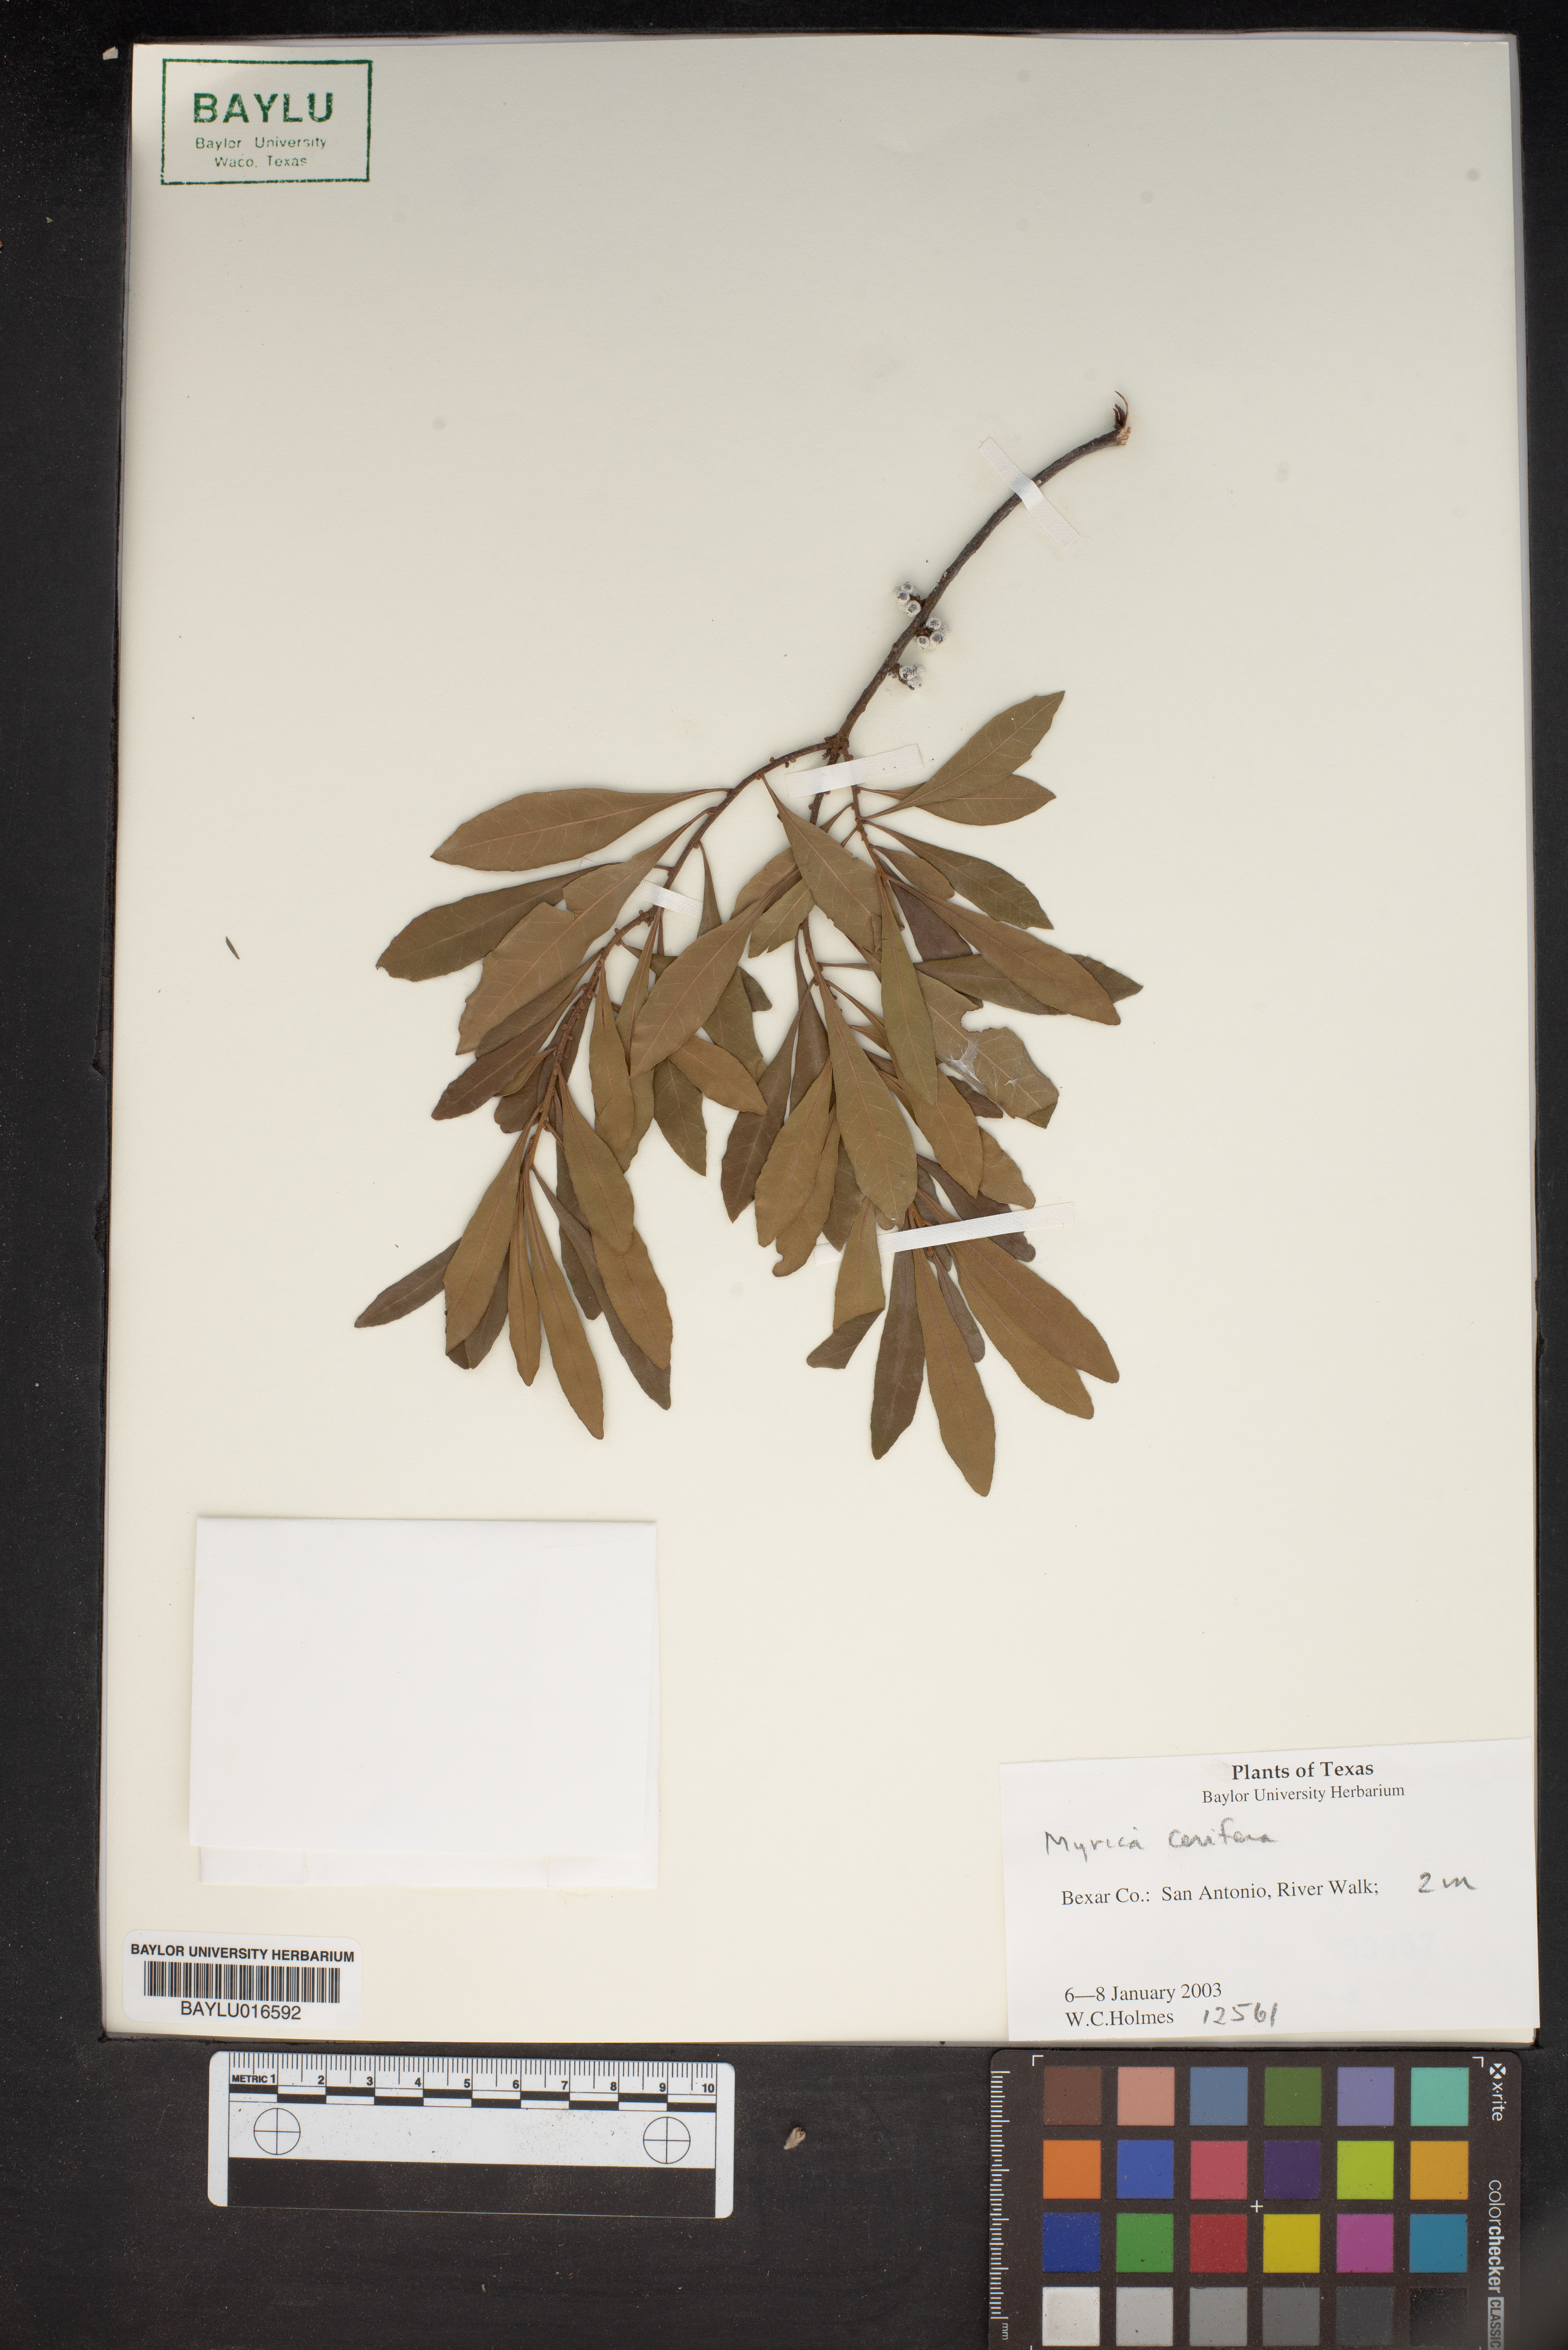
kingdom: Plantae
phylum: Tracheophyta
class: Magnoliopsida
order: Fagales
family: Myricaceae
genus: Morella
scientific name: Morella cerifera
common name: Wax myrtle
